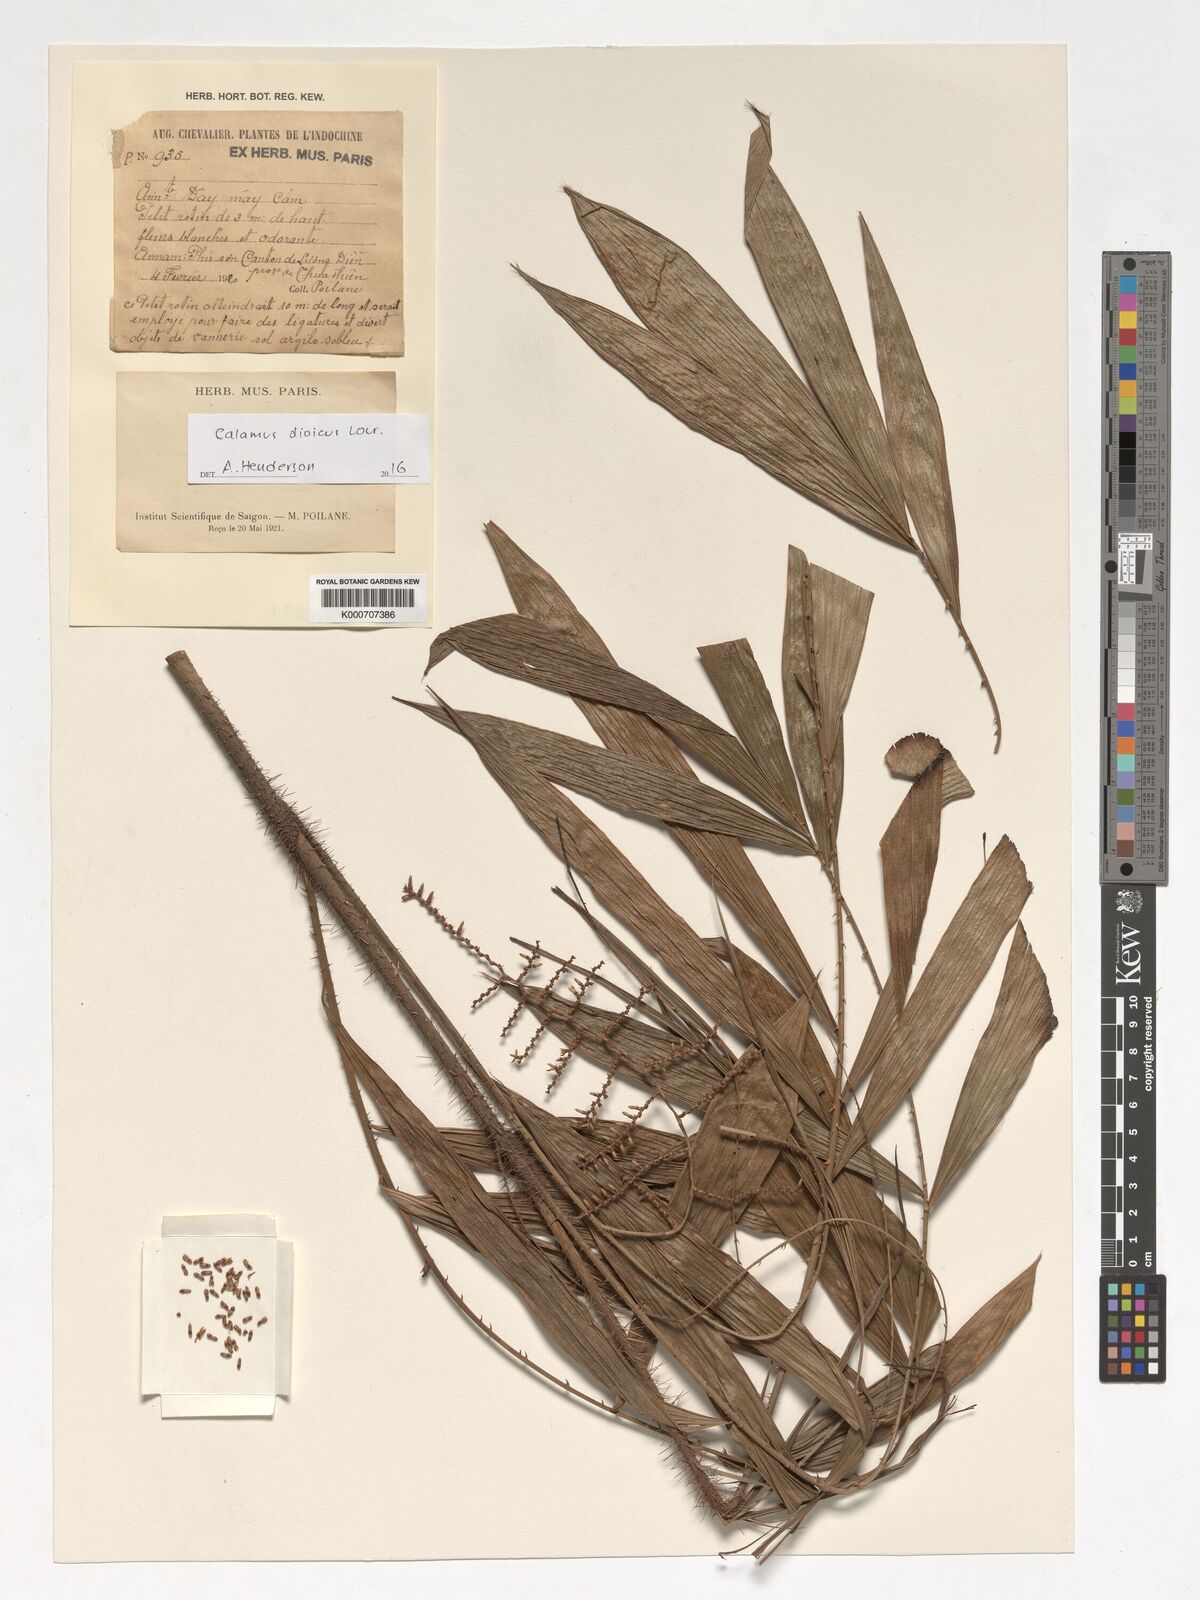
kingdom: Plantae
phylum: Tracheophyta
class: Liliopsida
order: Arecales
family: Arecaceae
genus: Calamus
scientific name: Calamus dioicus
